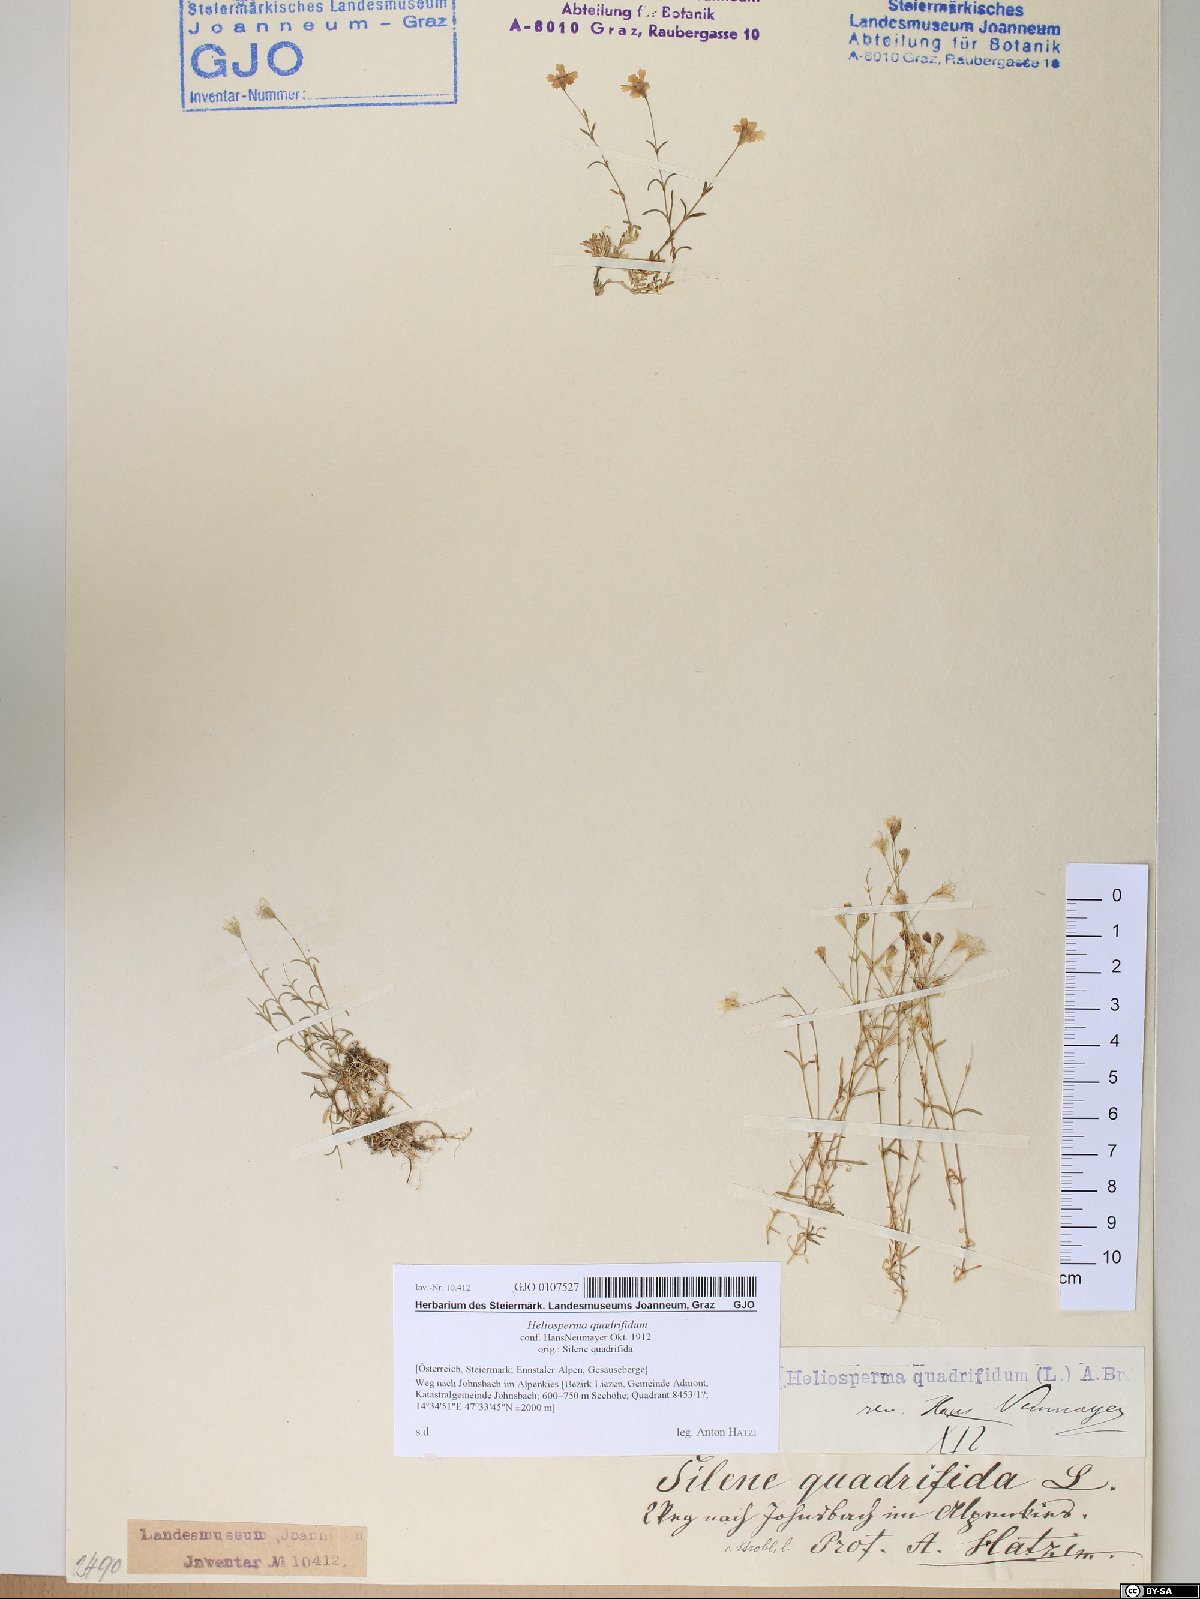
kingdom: Plantae
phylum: Tracheophyta
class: Magnoliopsida
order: Caryophyllales
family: Caryophyllaceae
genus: Heliosperma
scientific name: Heliosperma alpestre
